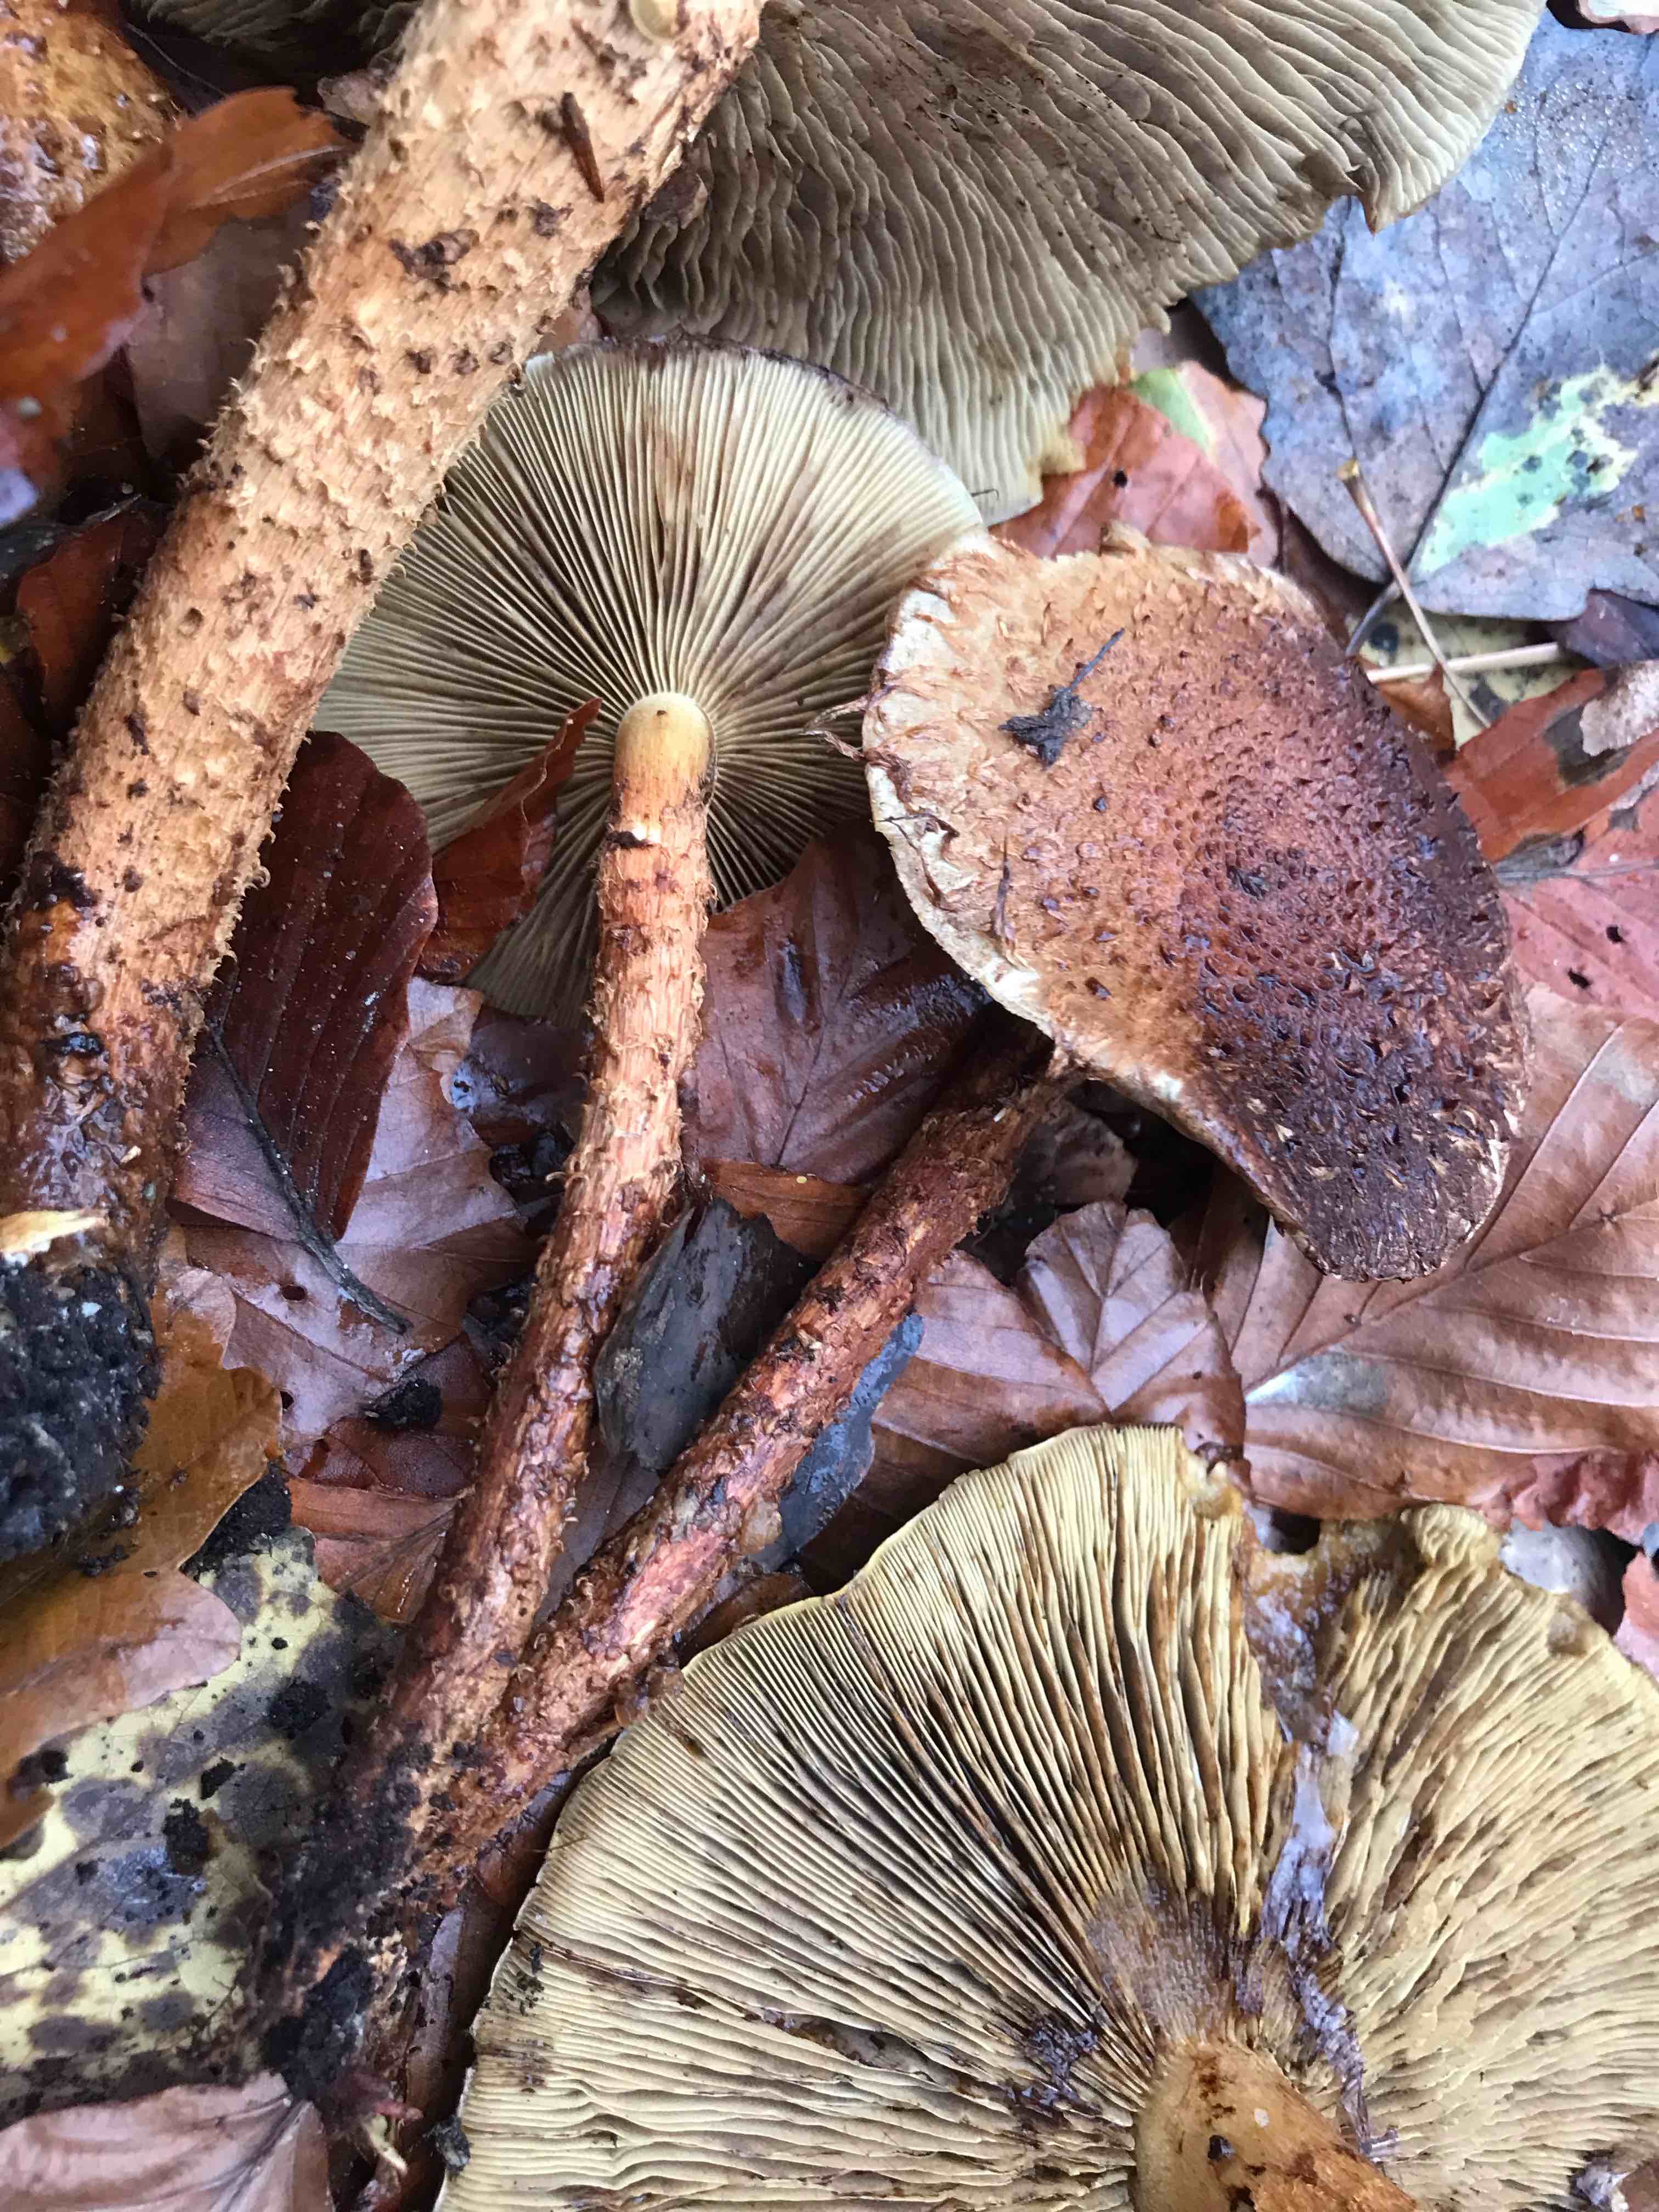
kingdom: Fungi
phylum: Basidiomycota
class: Agaricomycetes
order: Agaricales
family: Strophariaceae
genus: Pholiota
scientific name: Pholiota squarrosa
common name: krumskællet skælhat
